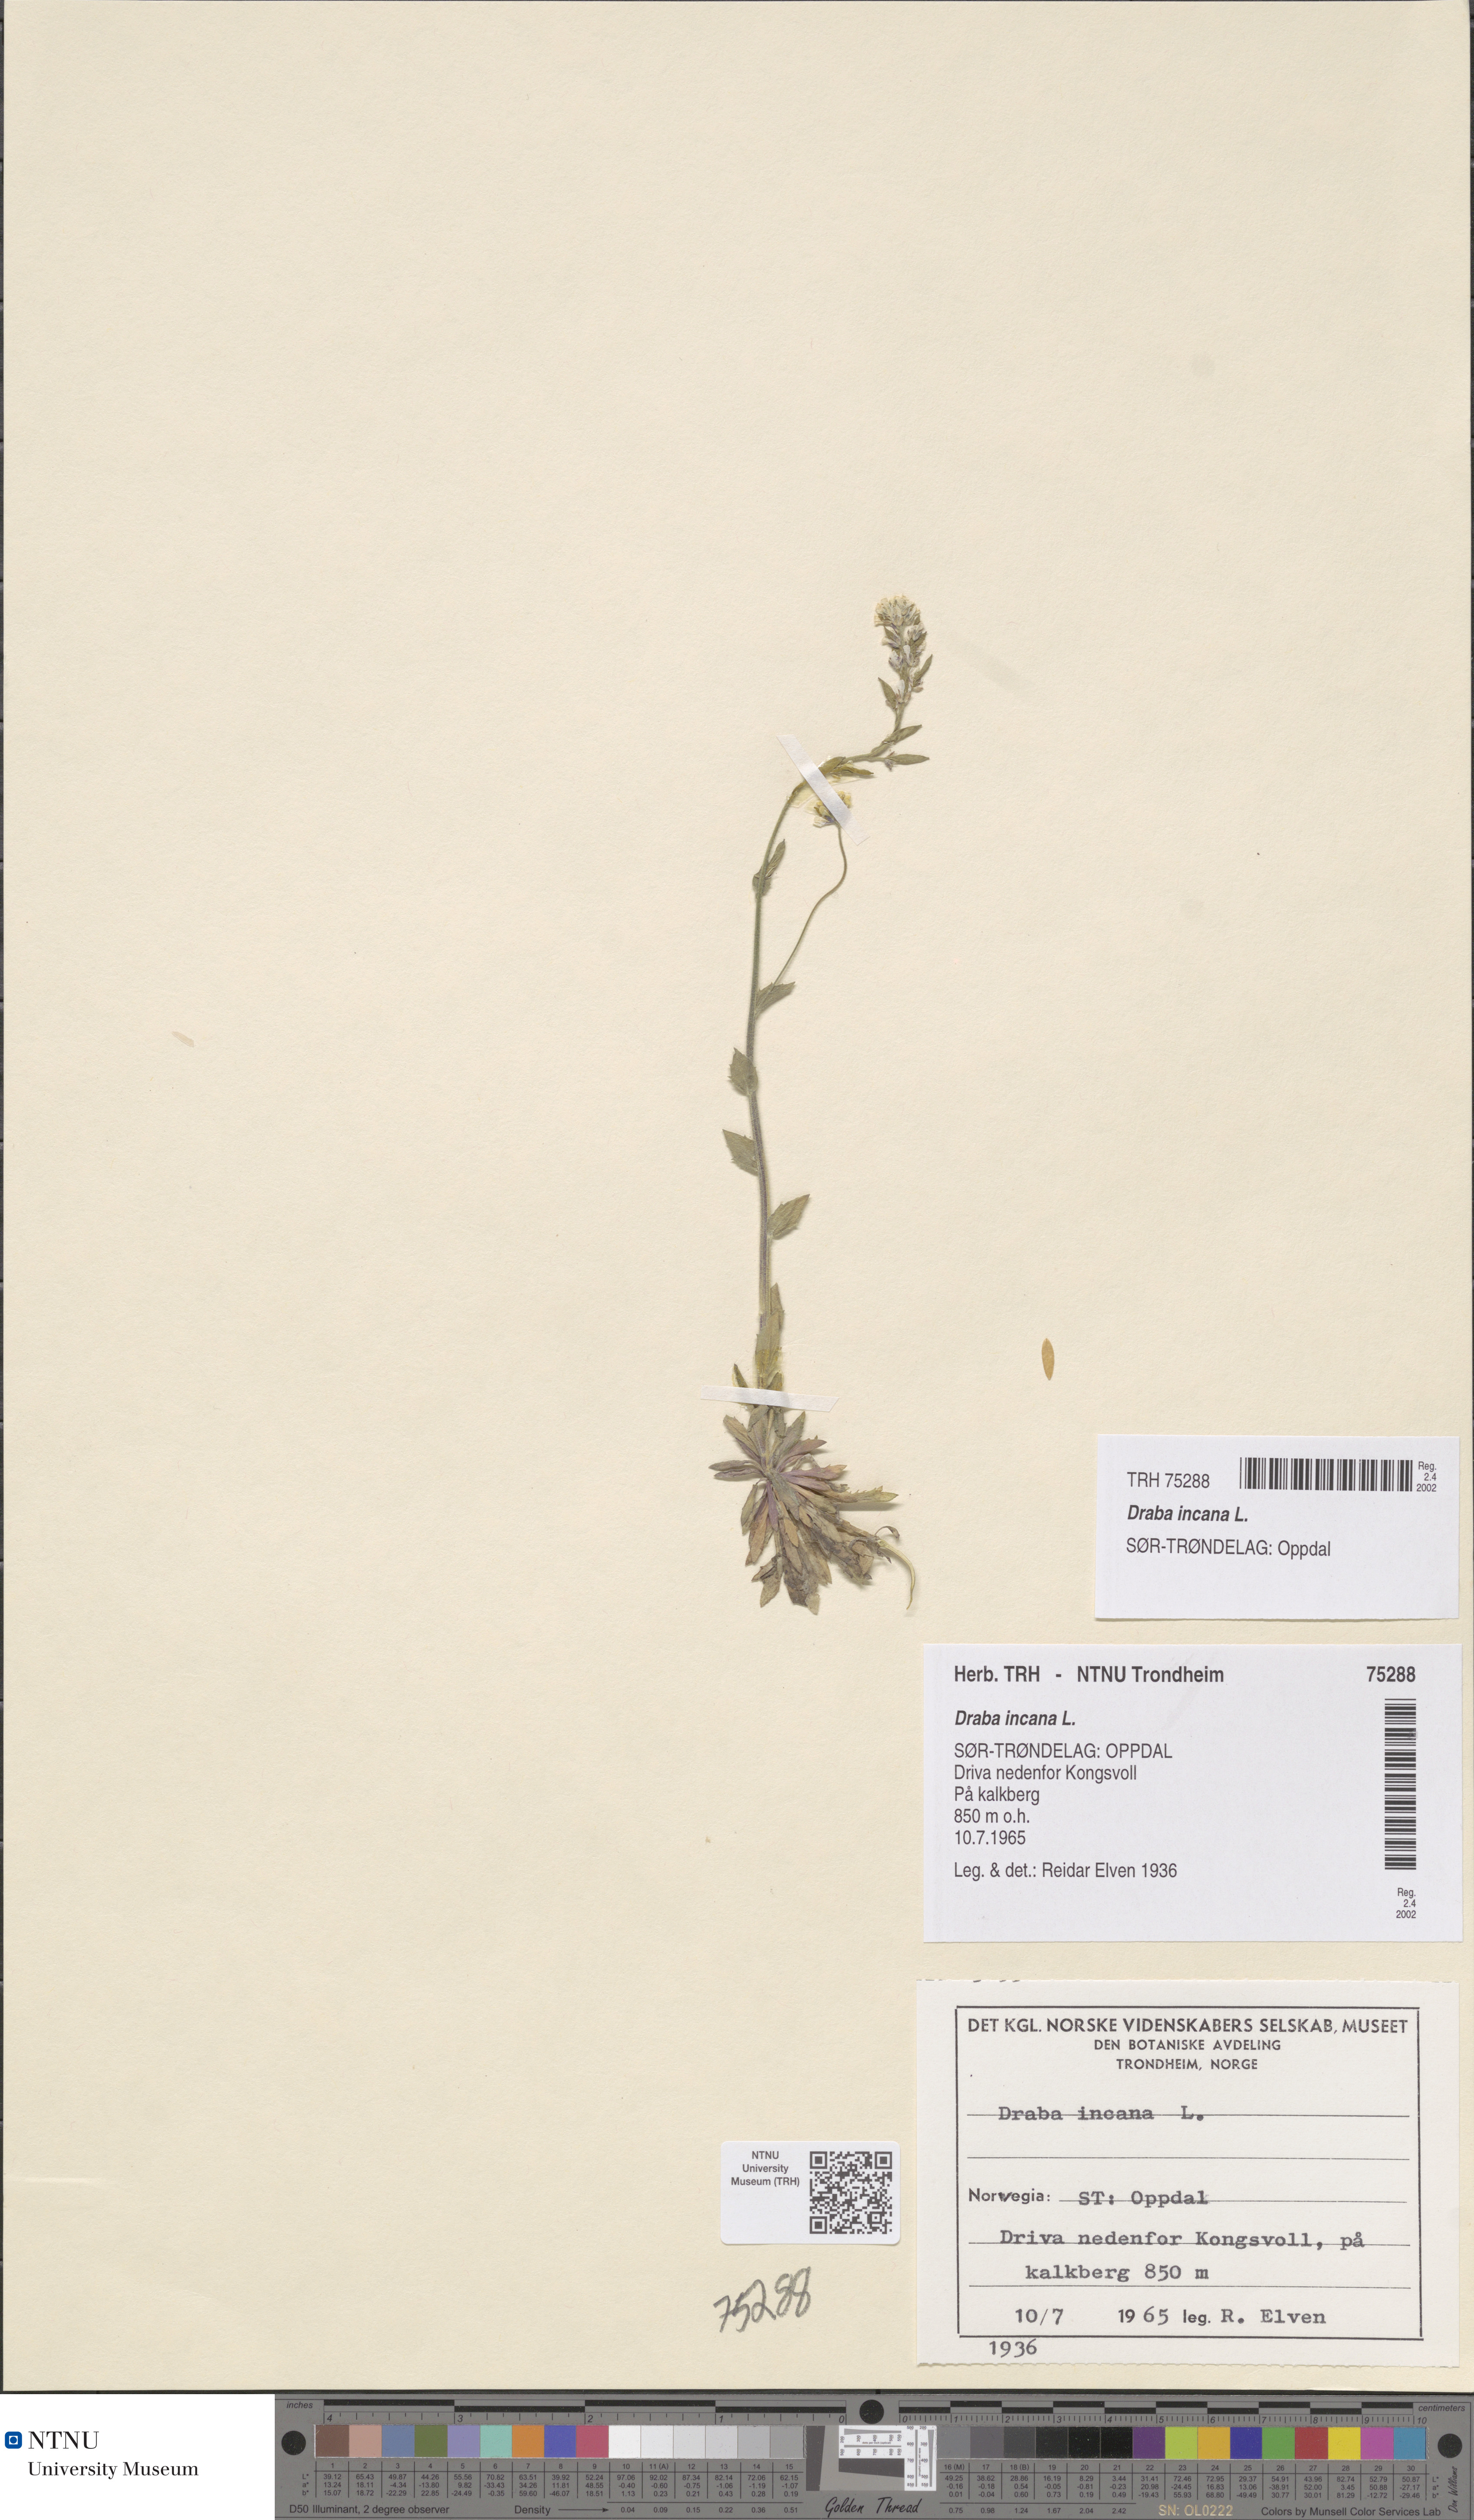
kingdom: Plantae
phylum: Tracheophyta
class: Magnoliopsida
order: Brassicales
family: Brassicaceae
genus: Draba
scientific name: Draba incana
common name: Hoary whitlow-grass
